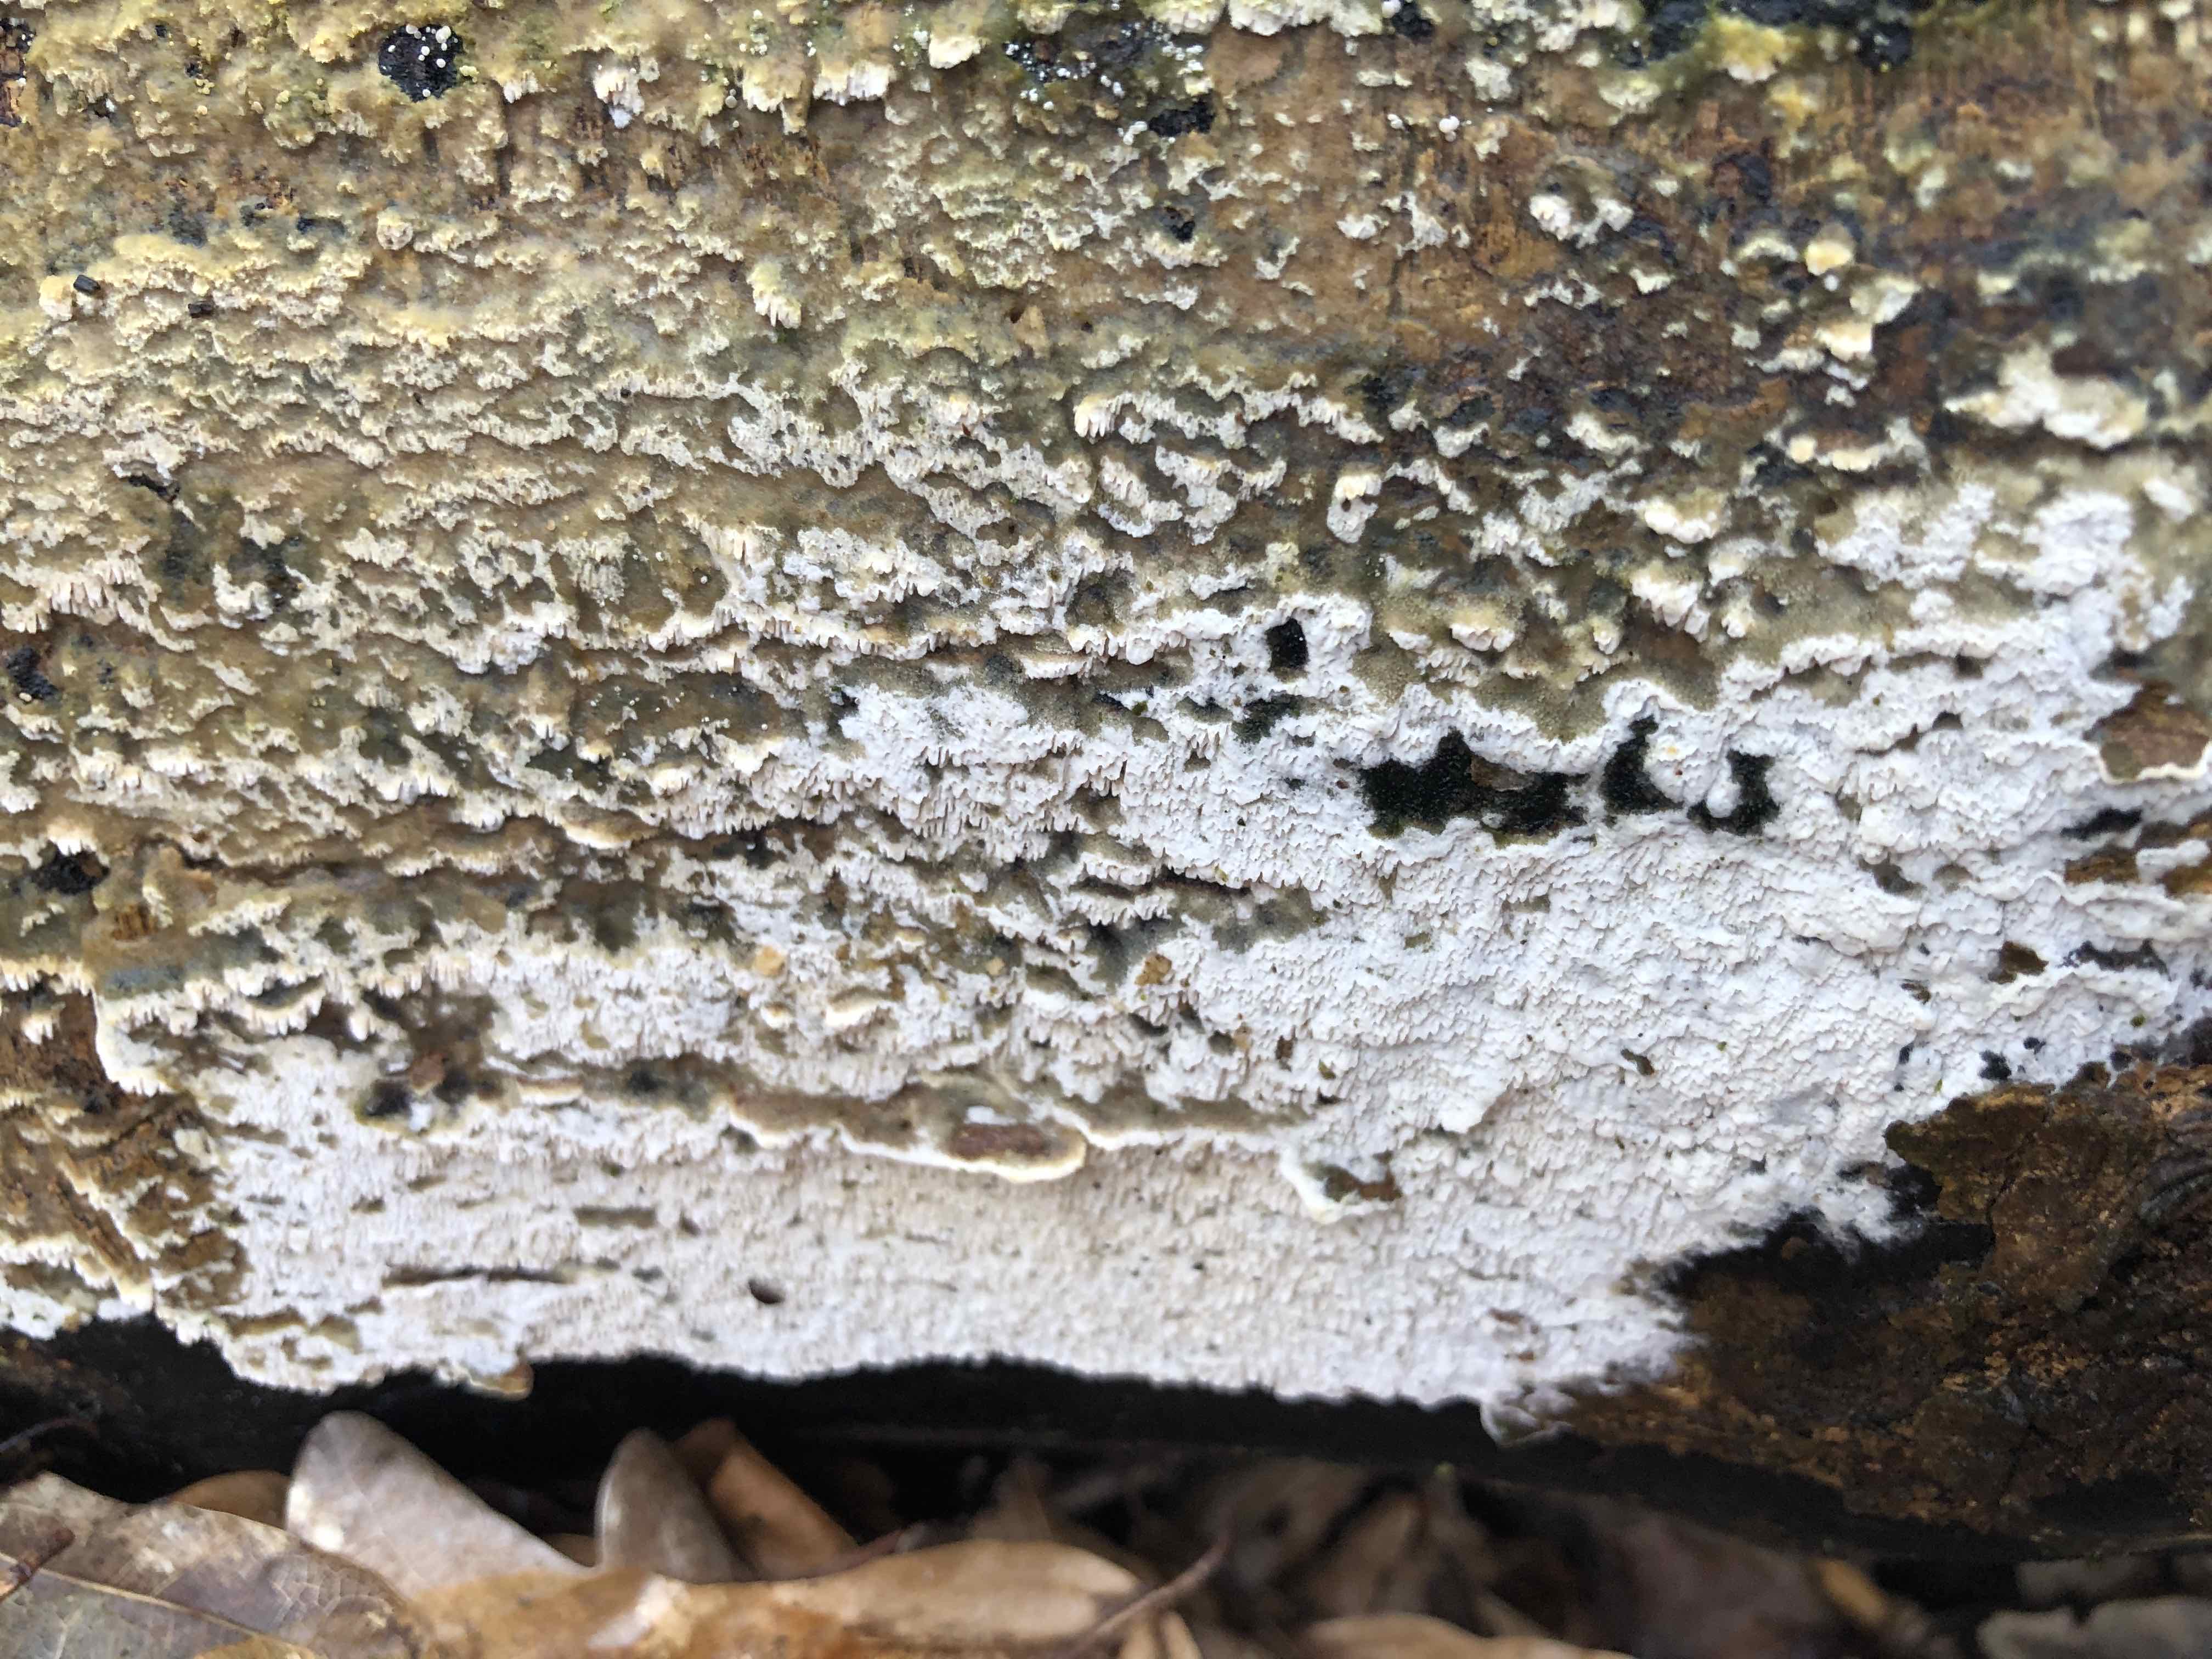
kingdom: Fungi
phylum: Basidiomycota
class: Agaricomycetes
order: Hymenochaetales
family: Schizoporaceae
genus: Schizopora
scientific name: Schizopora paradoxa
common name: hvid tandsvamp
